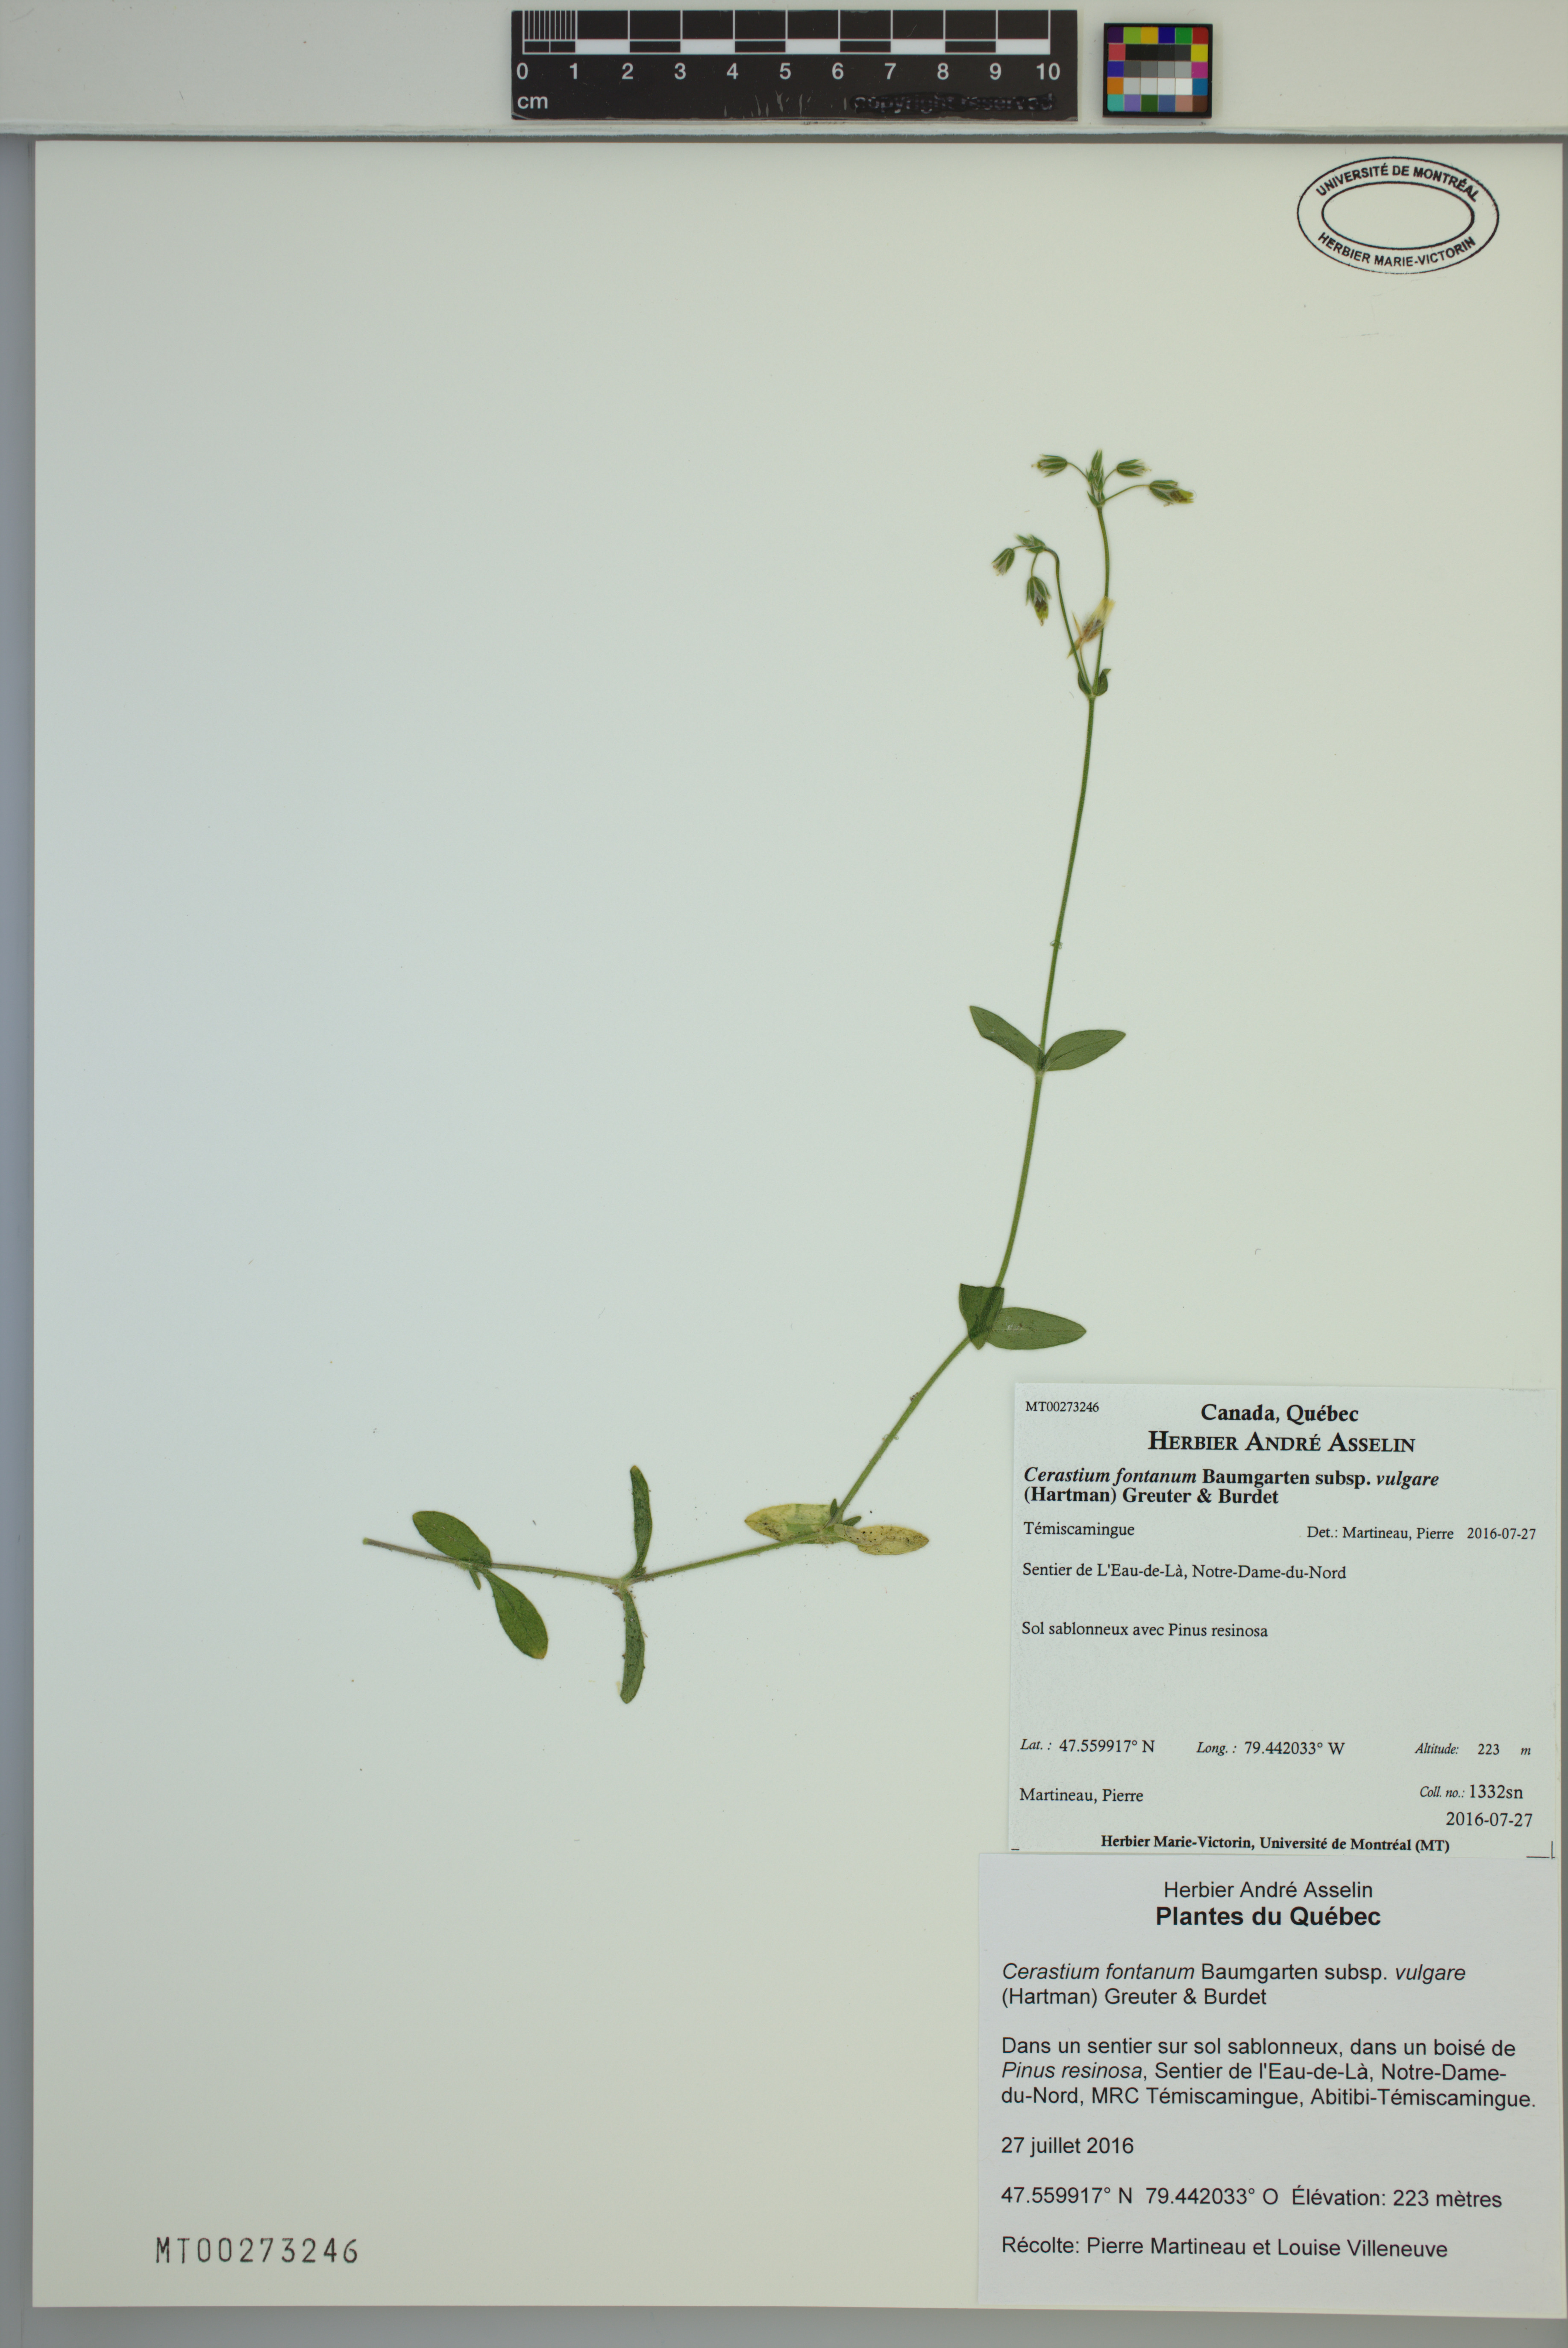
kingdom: Plantae
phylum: Tracheophyta
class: Magnoliopsida
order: Caryophyllales
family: Caryophyllaceae
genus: Cerastium
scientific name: Cerastium holosteoides
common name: Big chickweed
